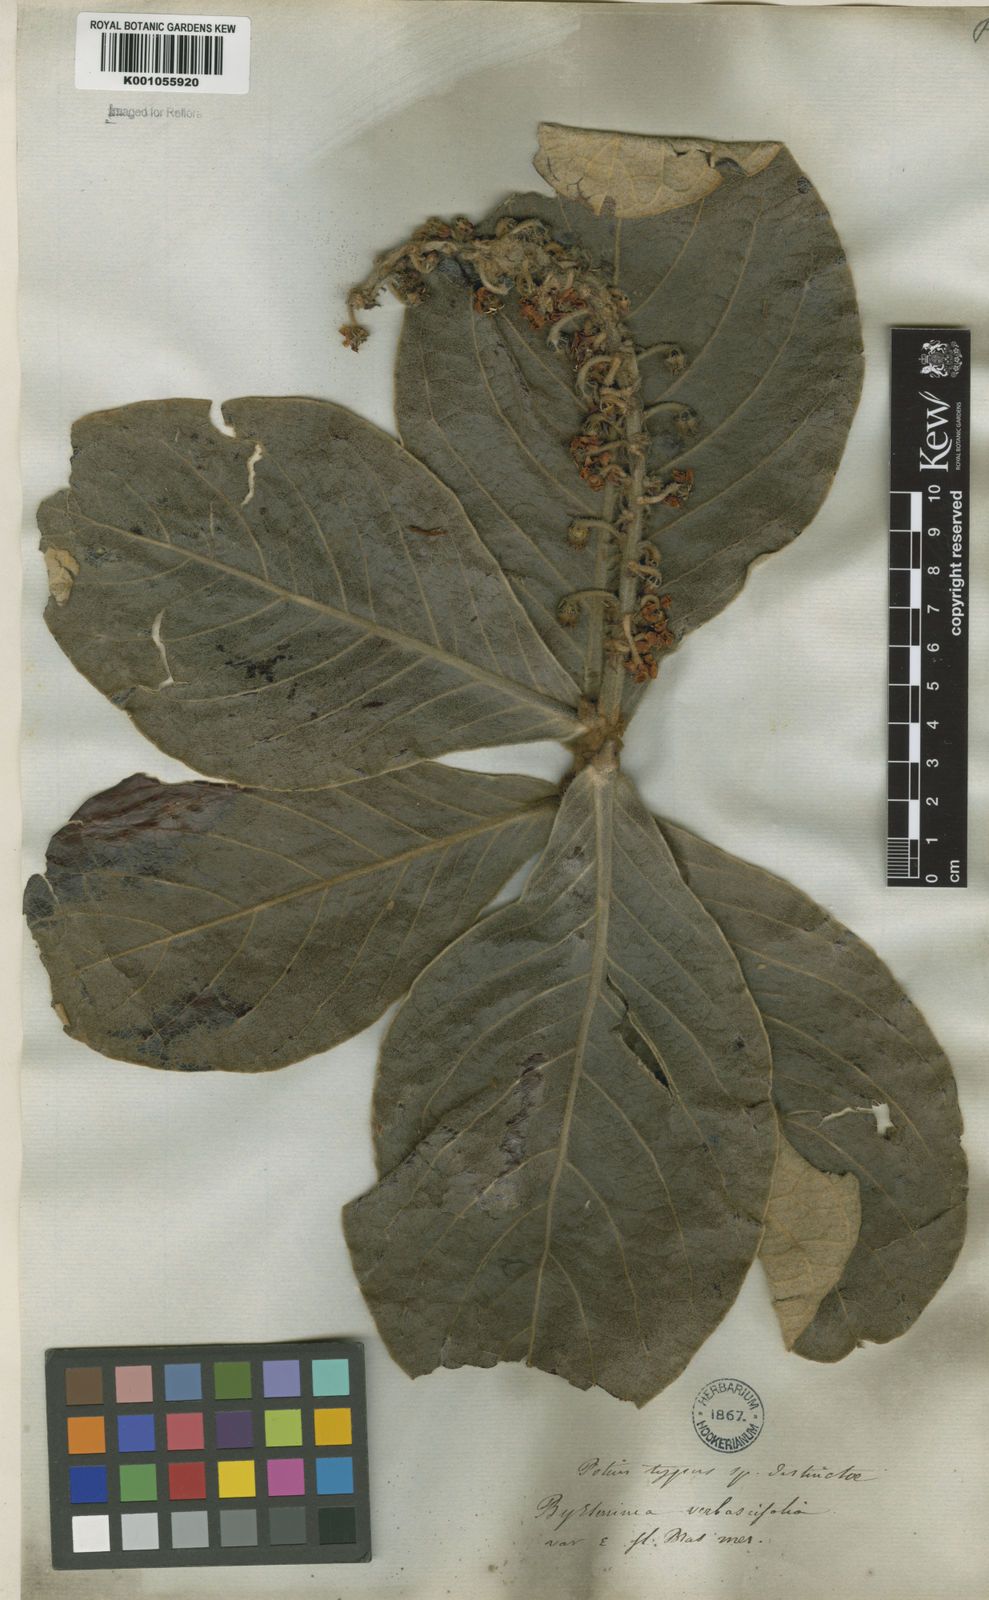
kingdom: Plantae
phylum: Tracheophyta
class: Magnoliopsida
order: Malpighiales
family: Malpighiaceae
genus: Byrsonima
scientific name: Byrsonima verbascifolia
